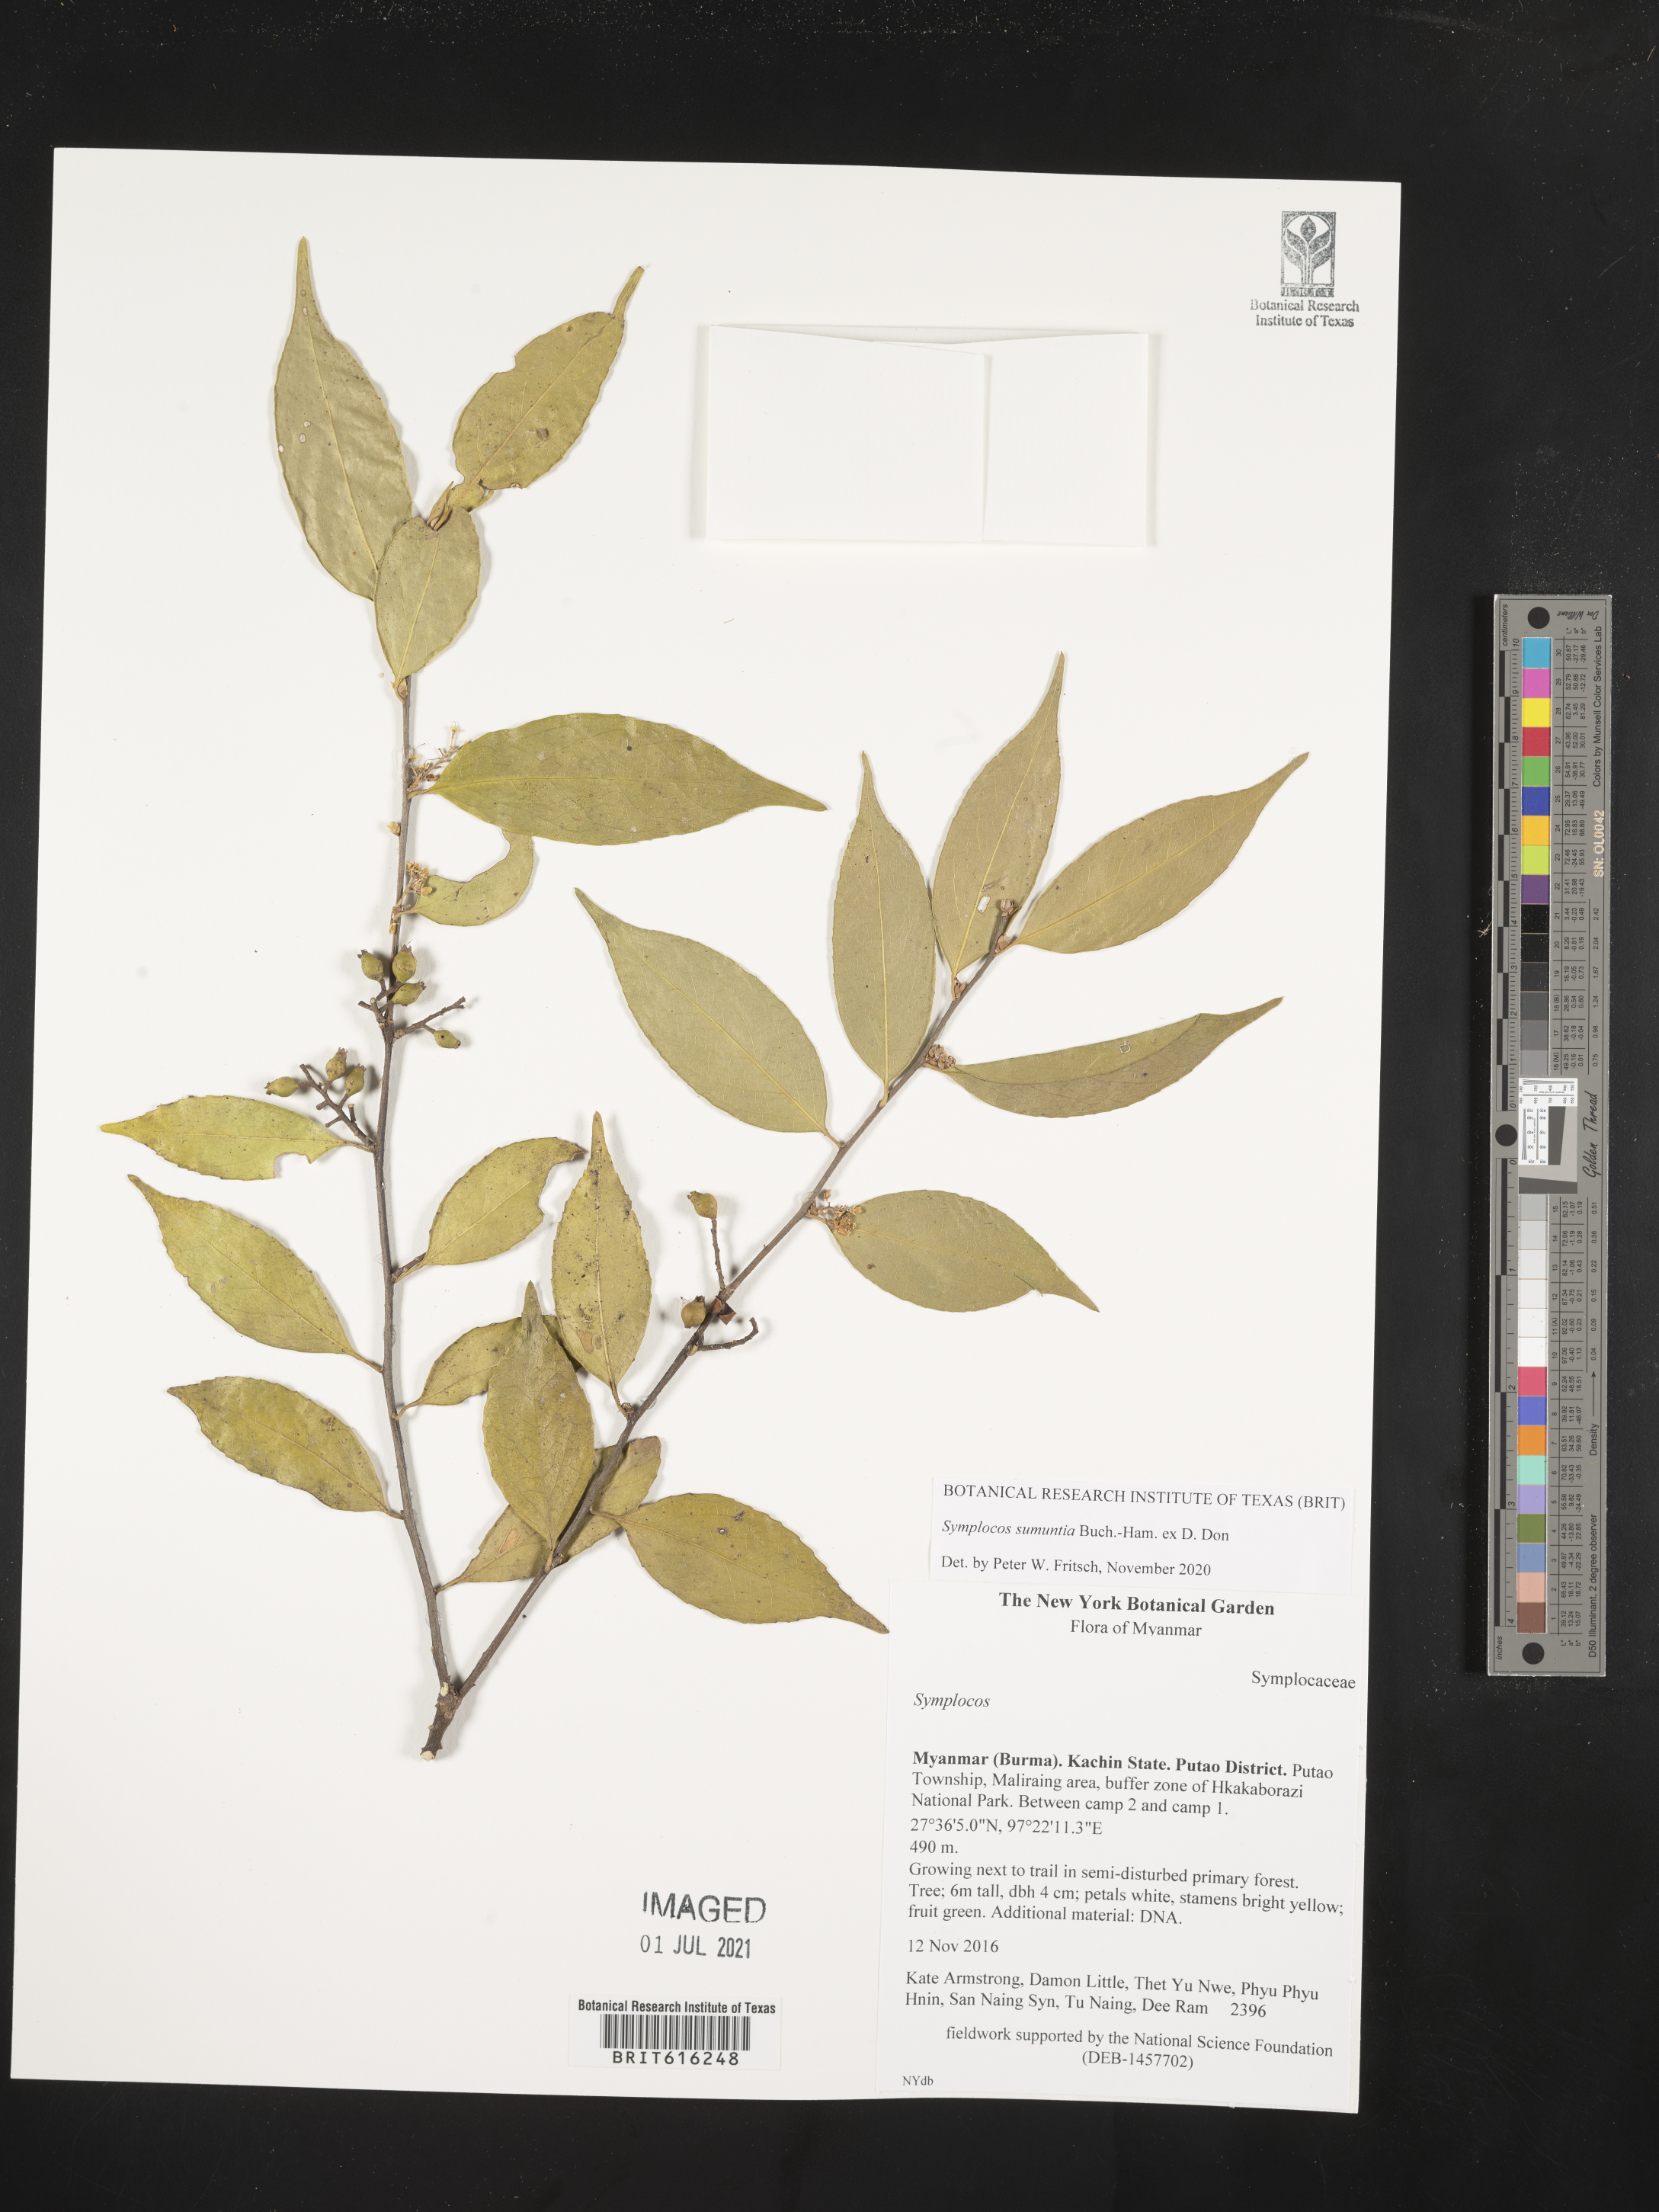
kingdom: Plantae
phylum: Tracheophyta
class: Magnoliopsida
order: Ericales
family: Symplocaceae
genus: Symplocos
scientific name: Symplocos sumuntia
